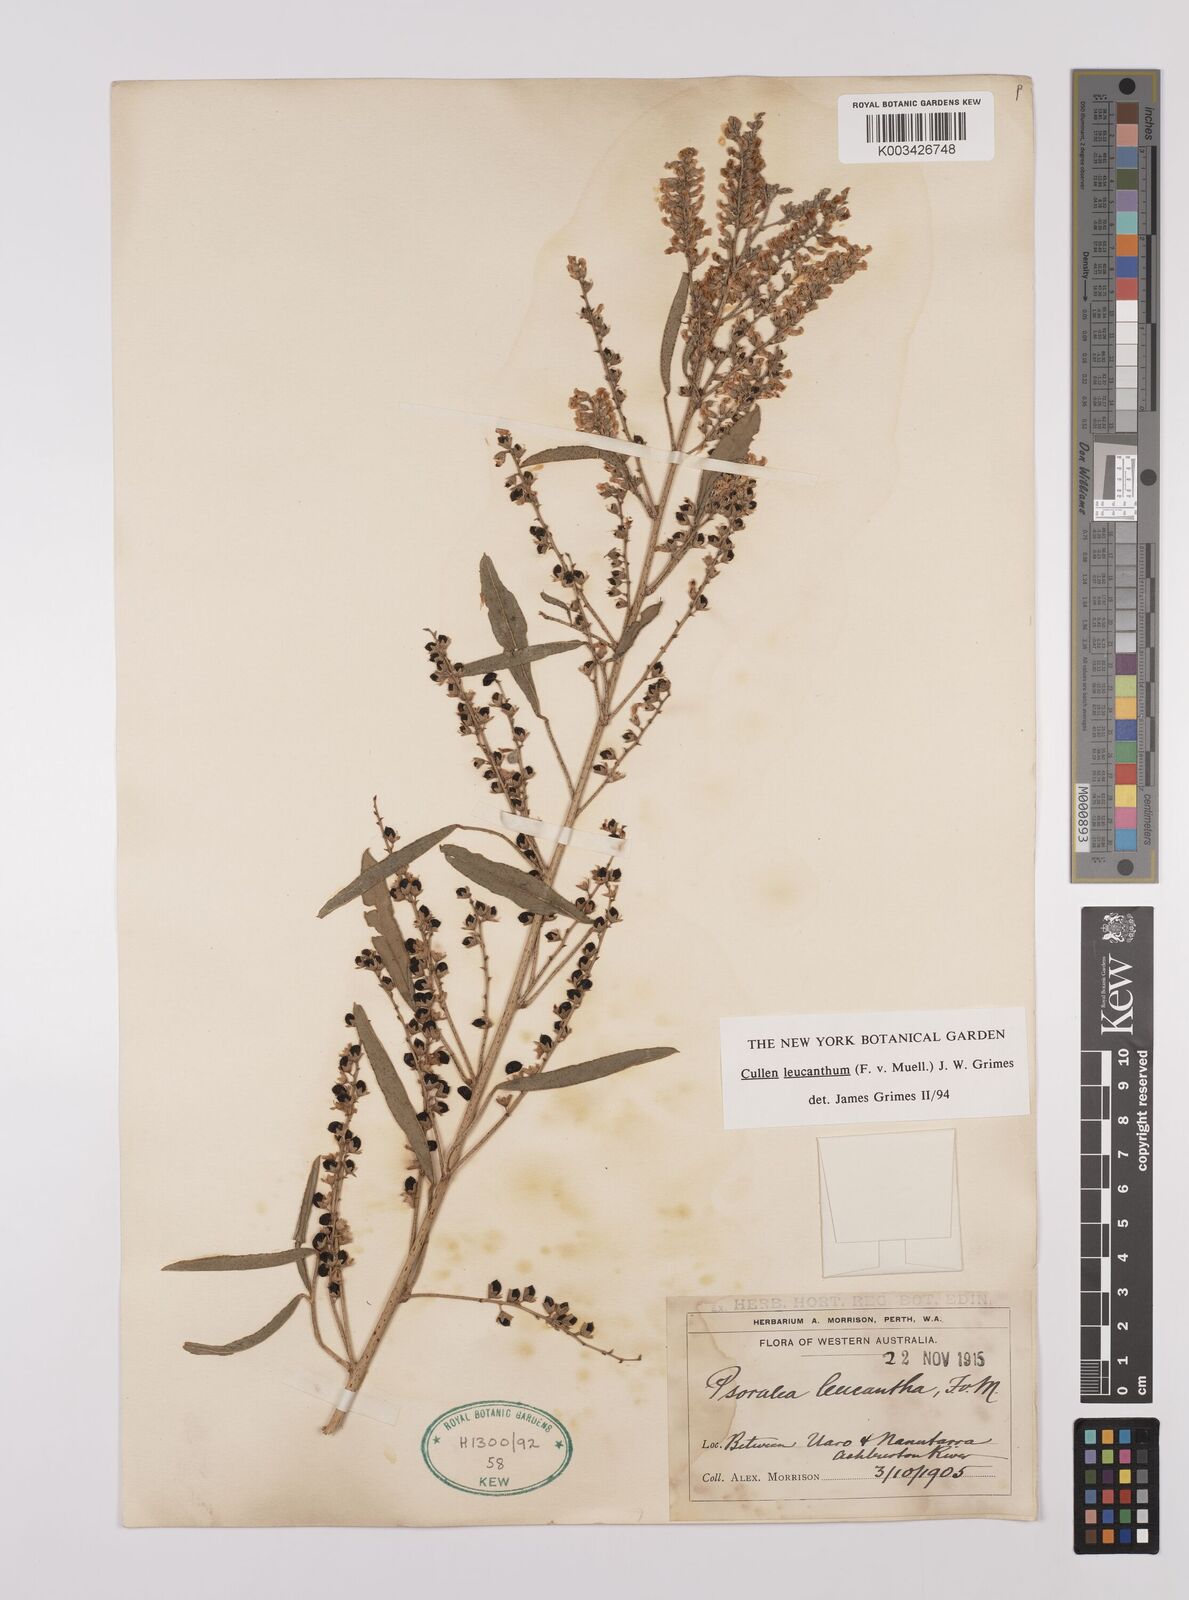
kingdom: Plantae
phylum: Tracheophyta
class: Magnoliopsida
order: Fabales
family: Fabaceae
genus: Cullen
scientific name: Cullen leucanthum
